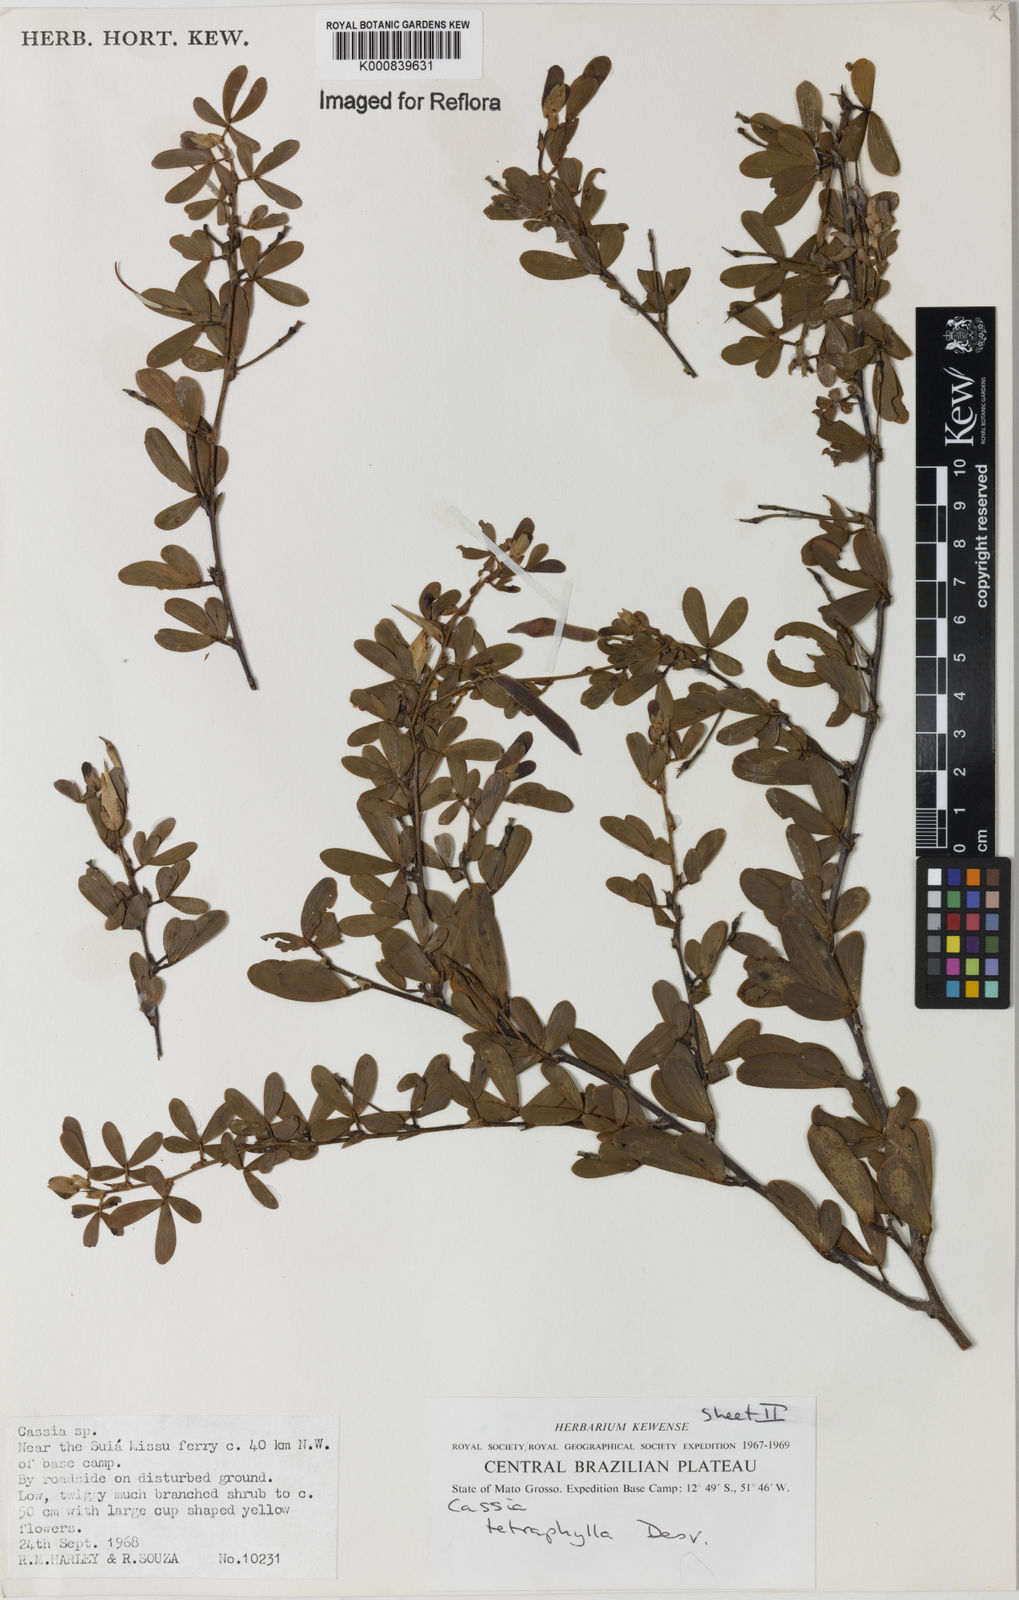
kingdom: Plantae
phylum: Tracheophyta
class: Magnoliopsida
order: Fabales
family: Fabaceae
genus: Chamaecrista
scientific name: Chamaecrista desvauxii
